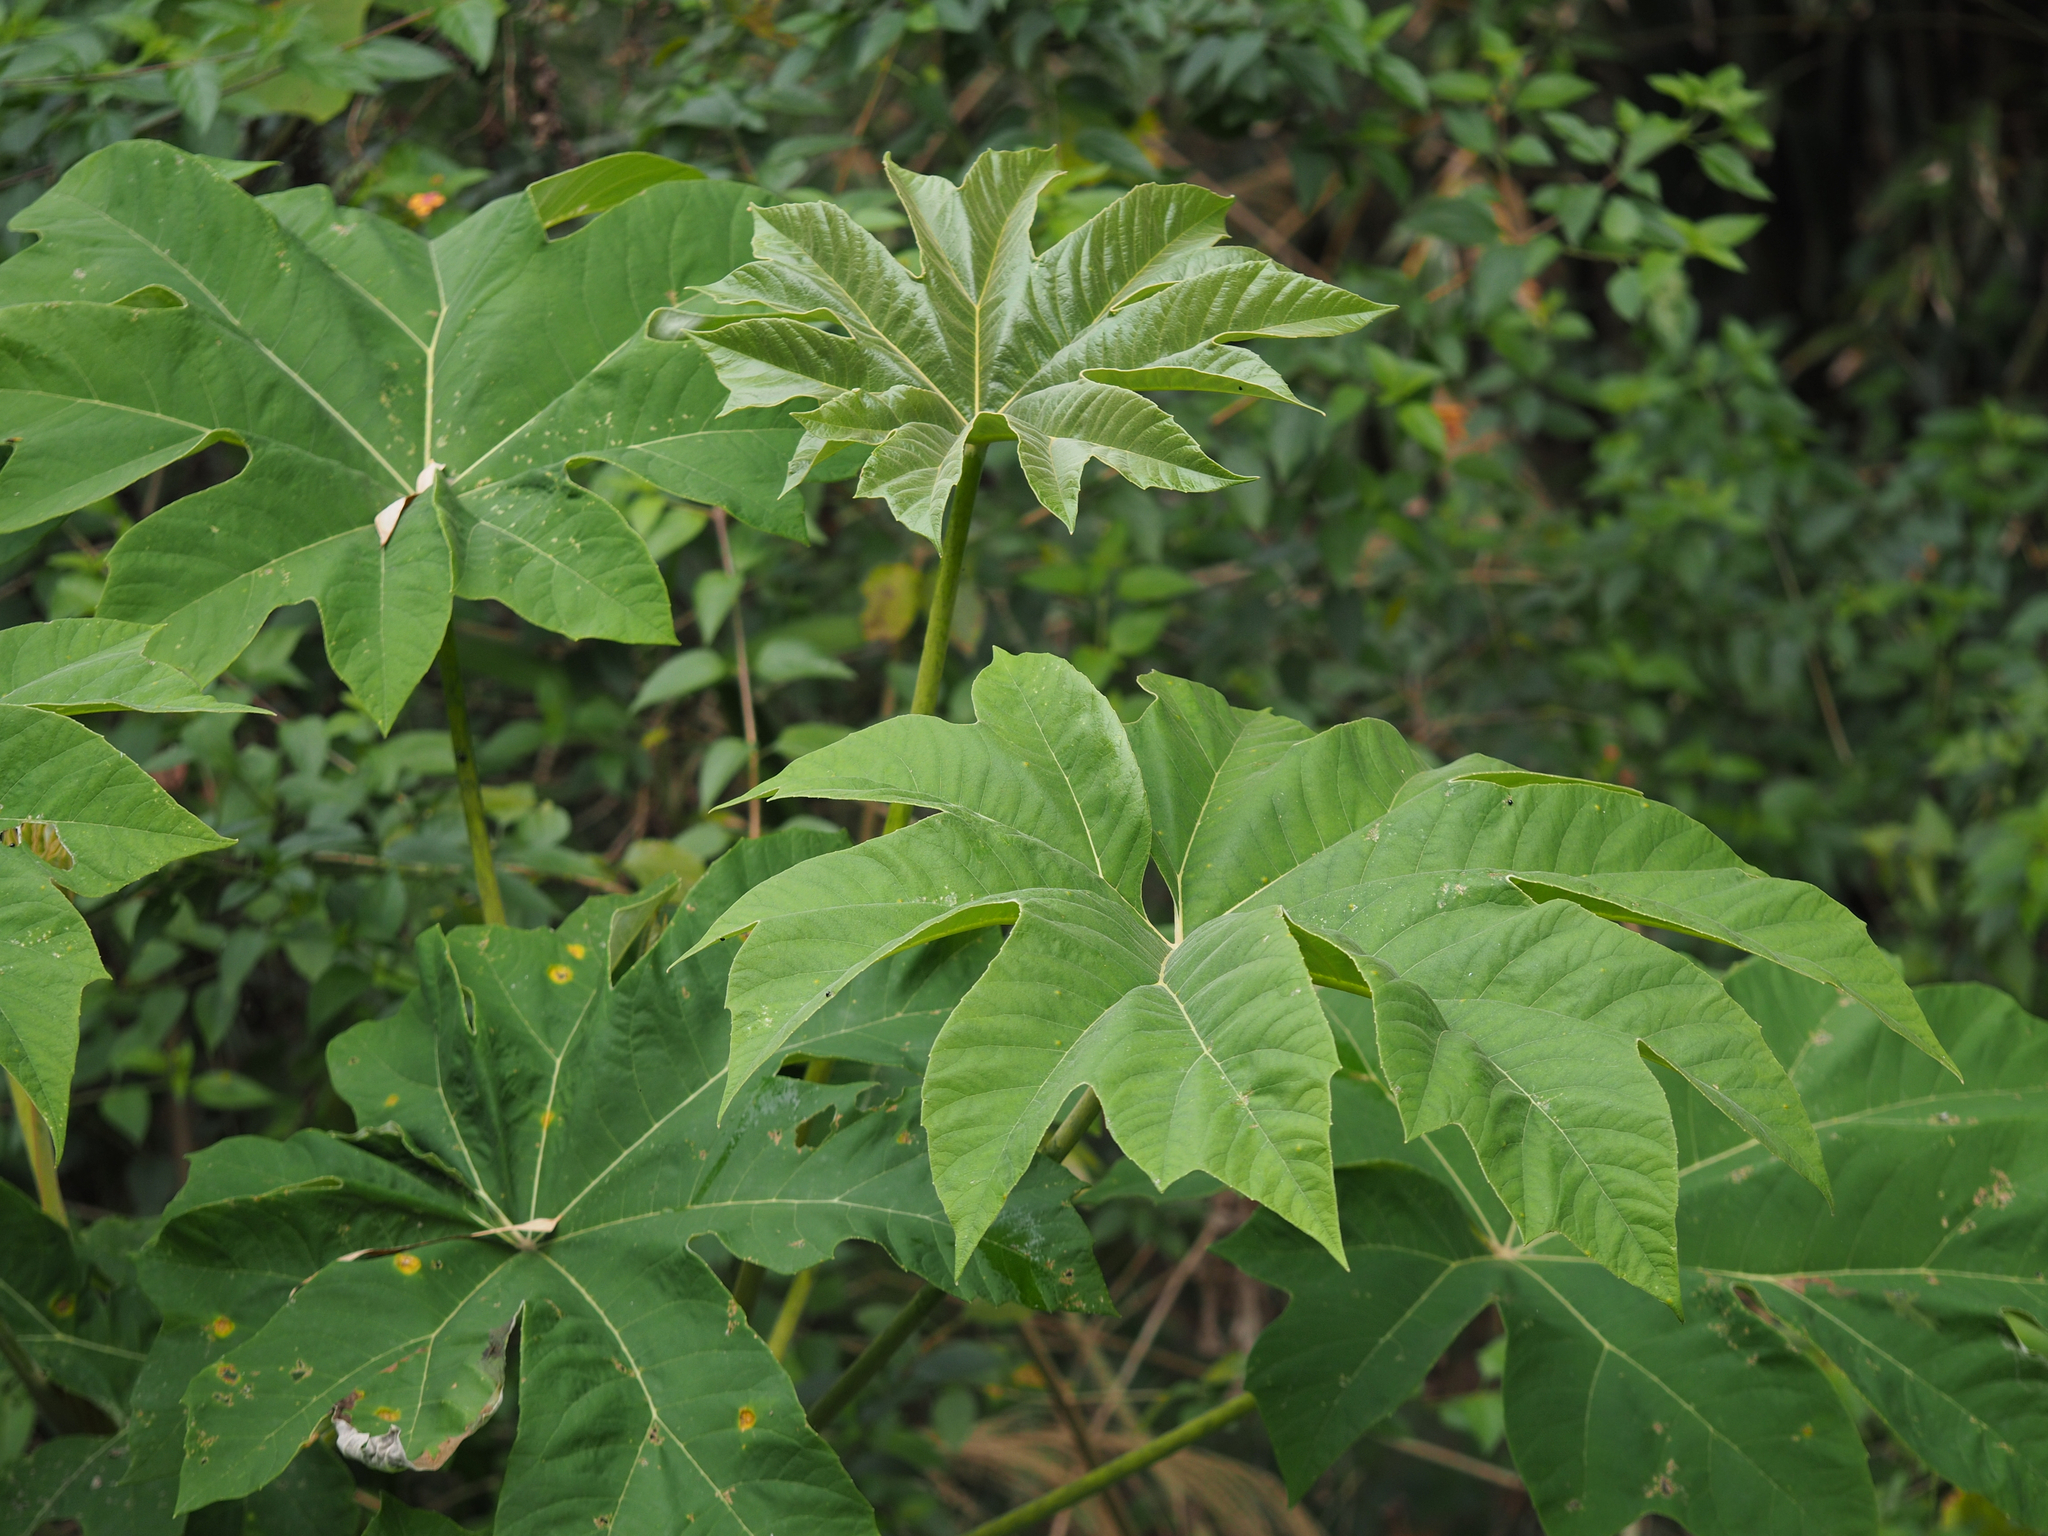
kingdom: Plantae
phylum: Tracheophyta
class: Magnoliopsida
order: Apiales
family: Araliaceae
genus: Tetrapanax
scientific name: Tetrapanax papyrifer
